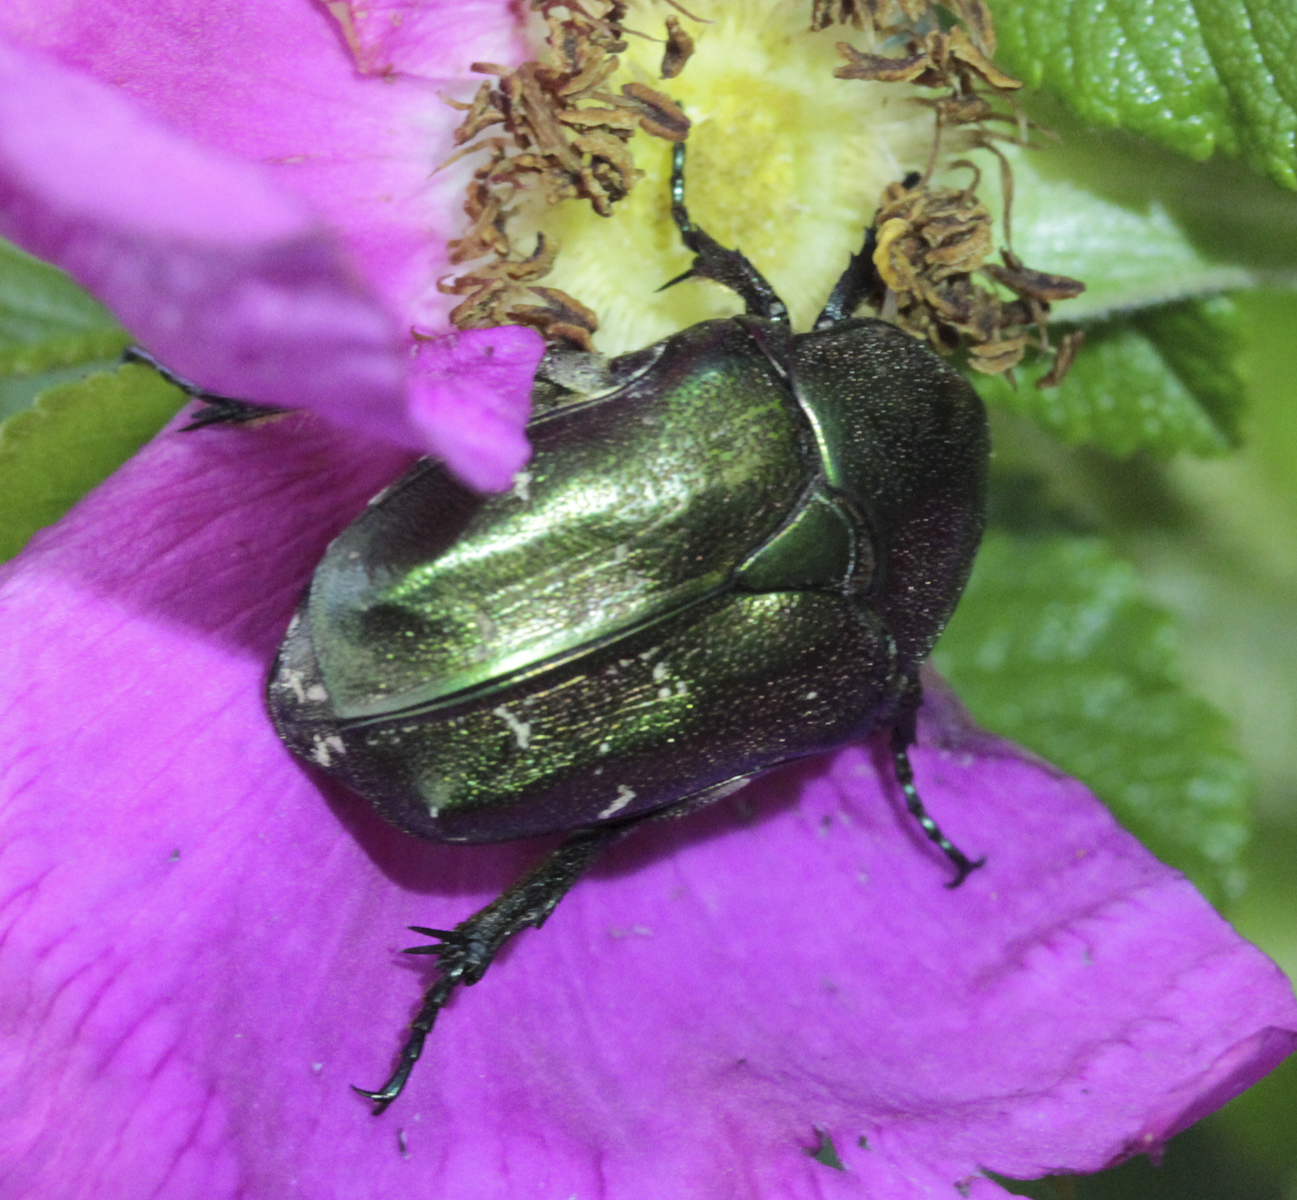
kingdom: Animalia
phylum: Arthropoda
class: Insecta
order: Coleoptera
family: Scarabaeidae
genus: Protaetia
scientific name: Protaetia cuprea
